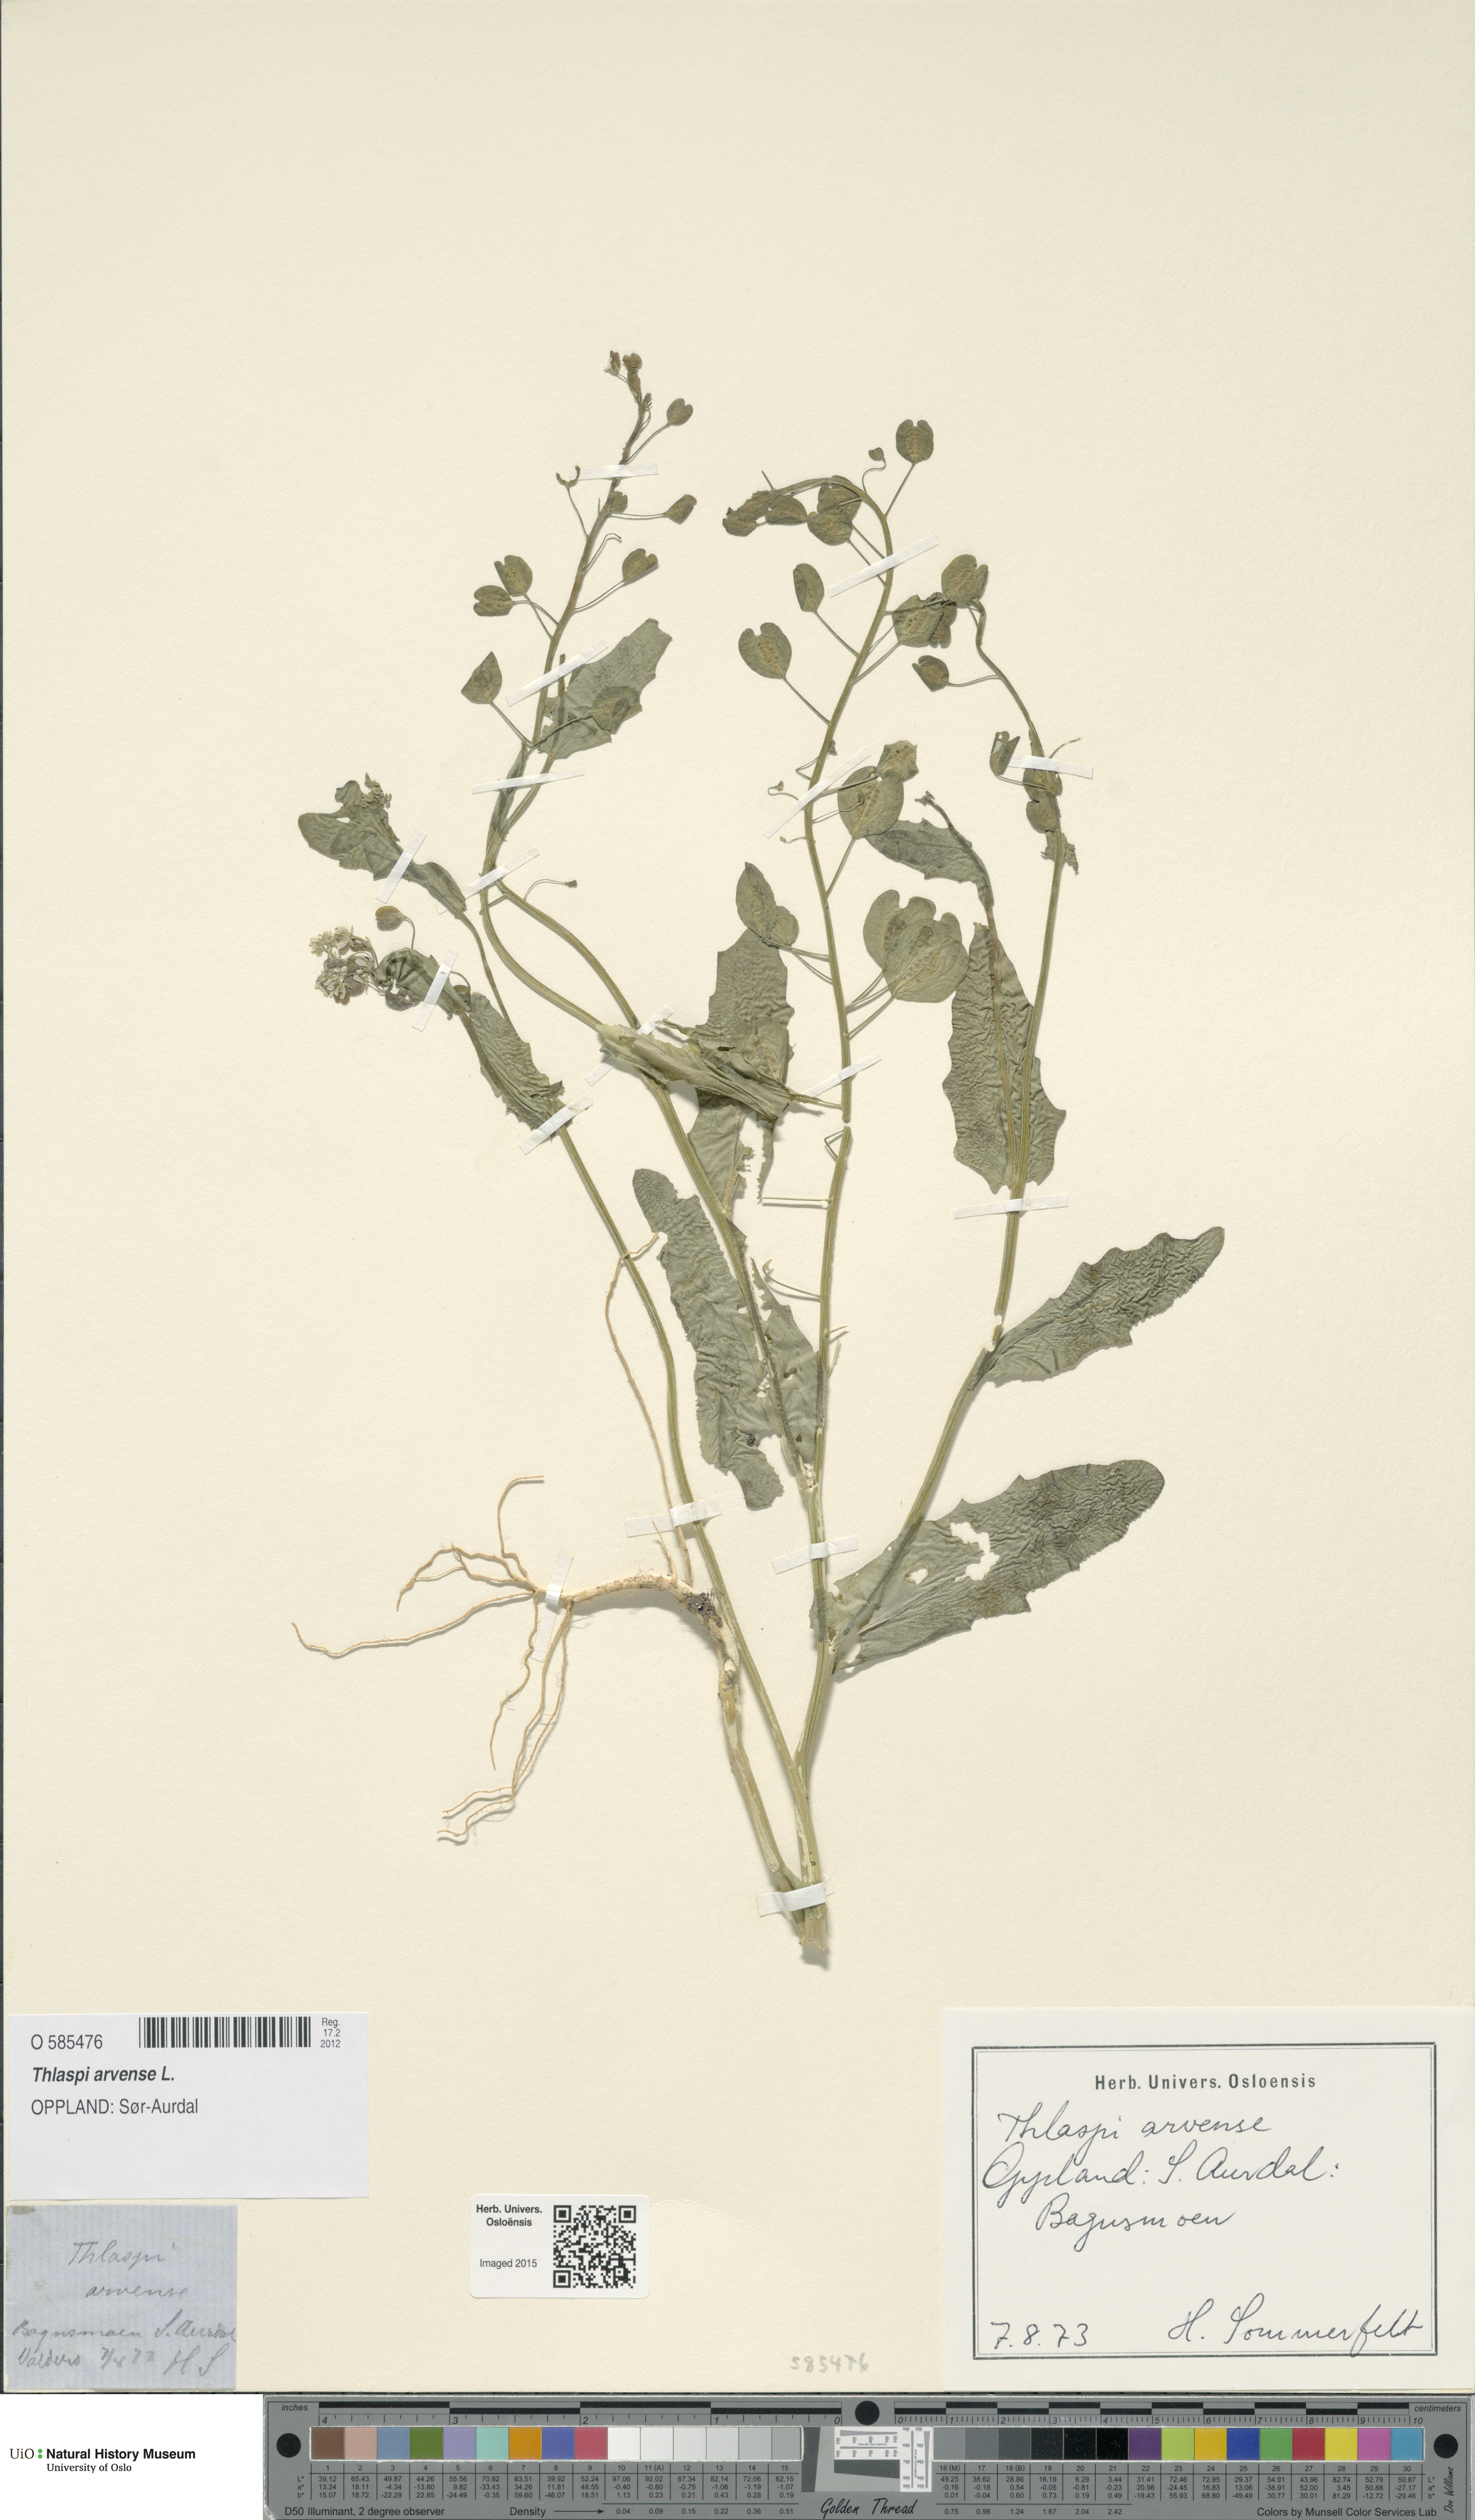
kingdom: Plantae
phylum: Tracheophyta
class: Magnoliopsida
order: Brassicales
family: Brassicaceae
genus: Thlaspi
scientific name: Thlaspi arvense
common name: Field pennycress
